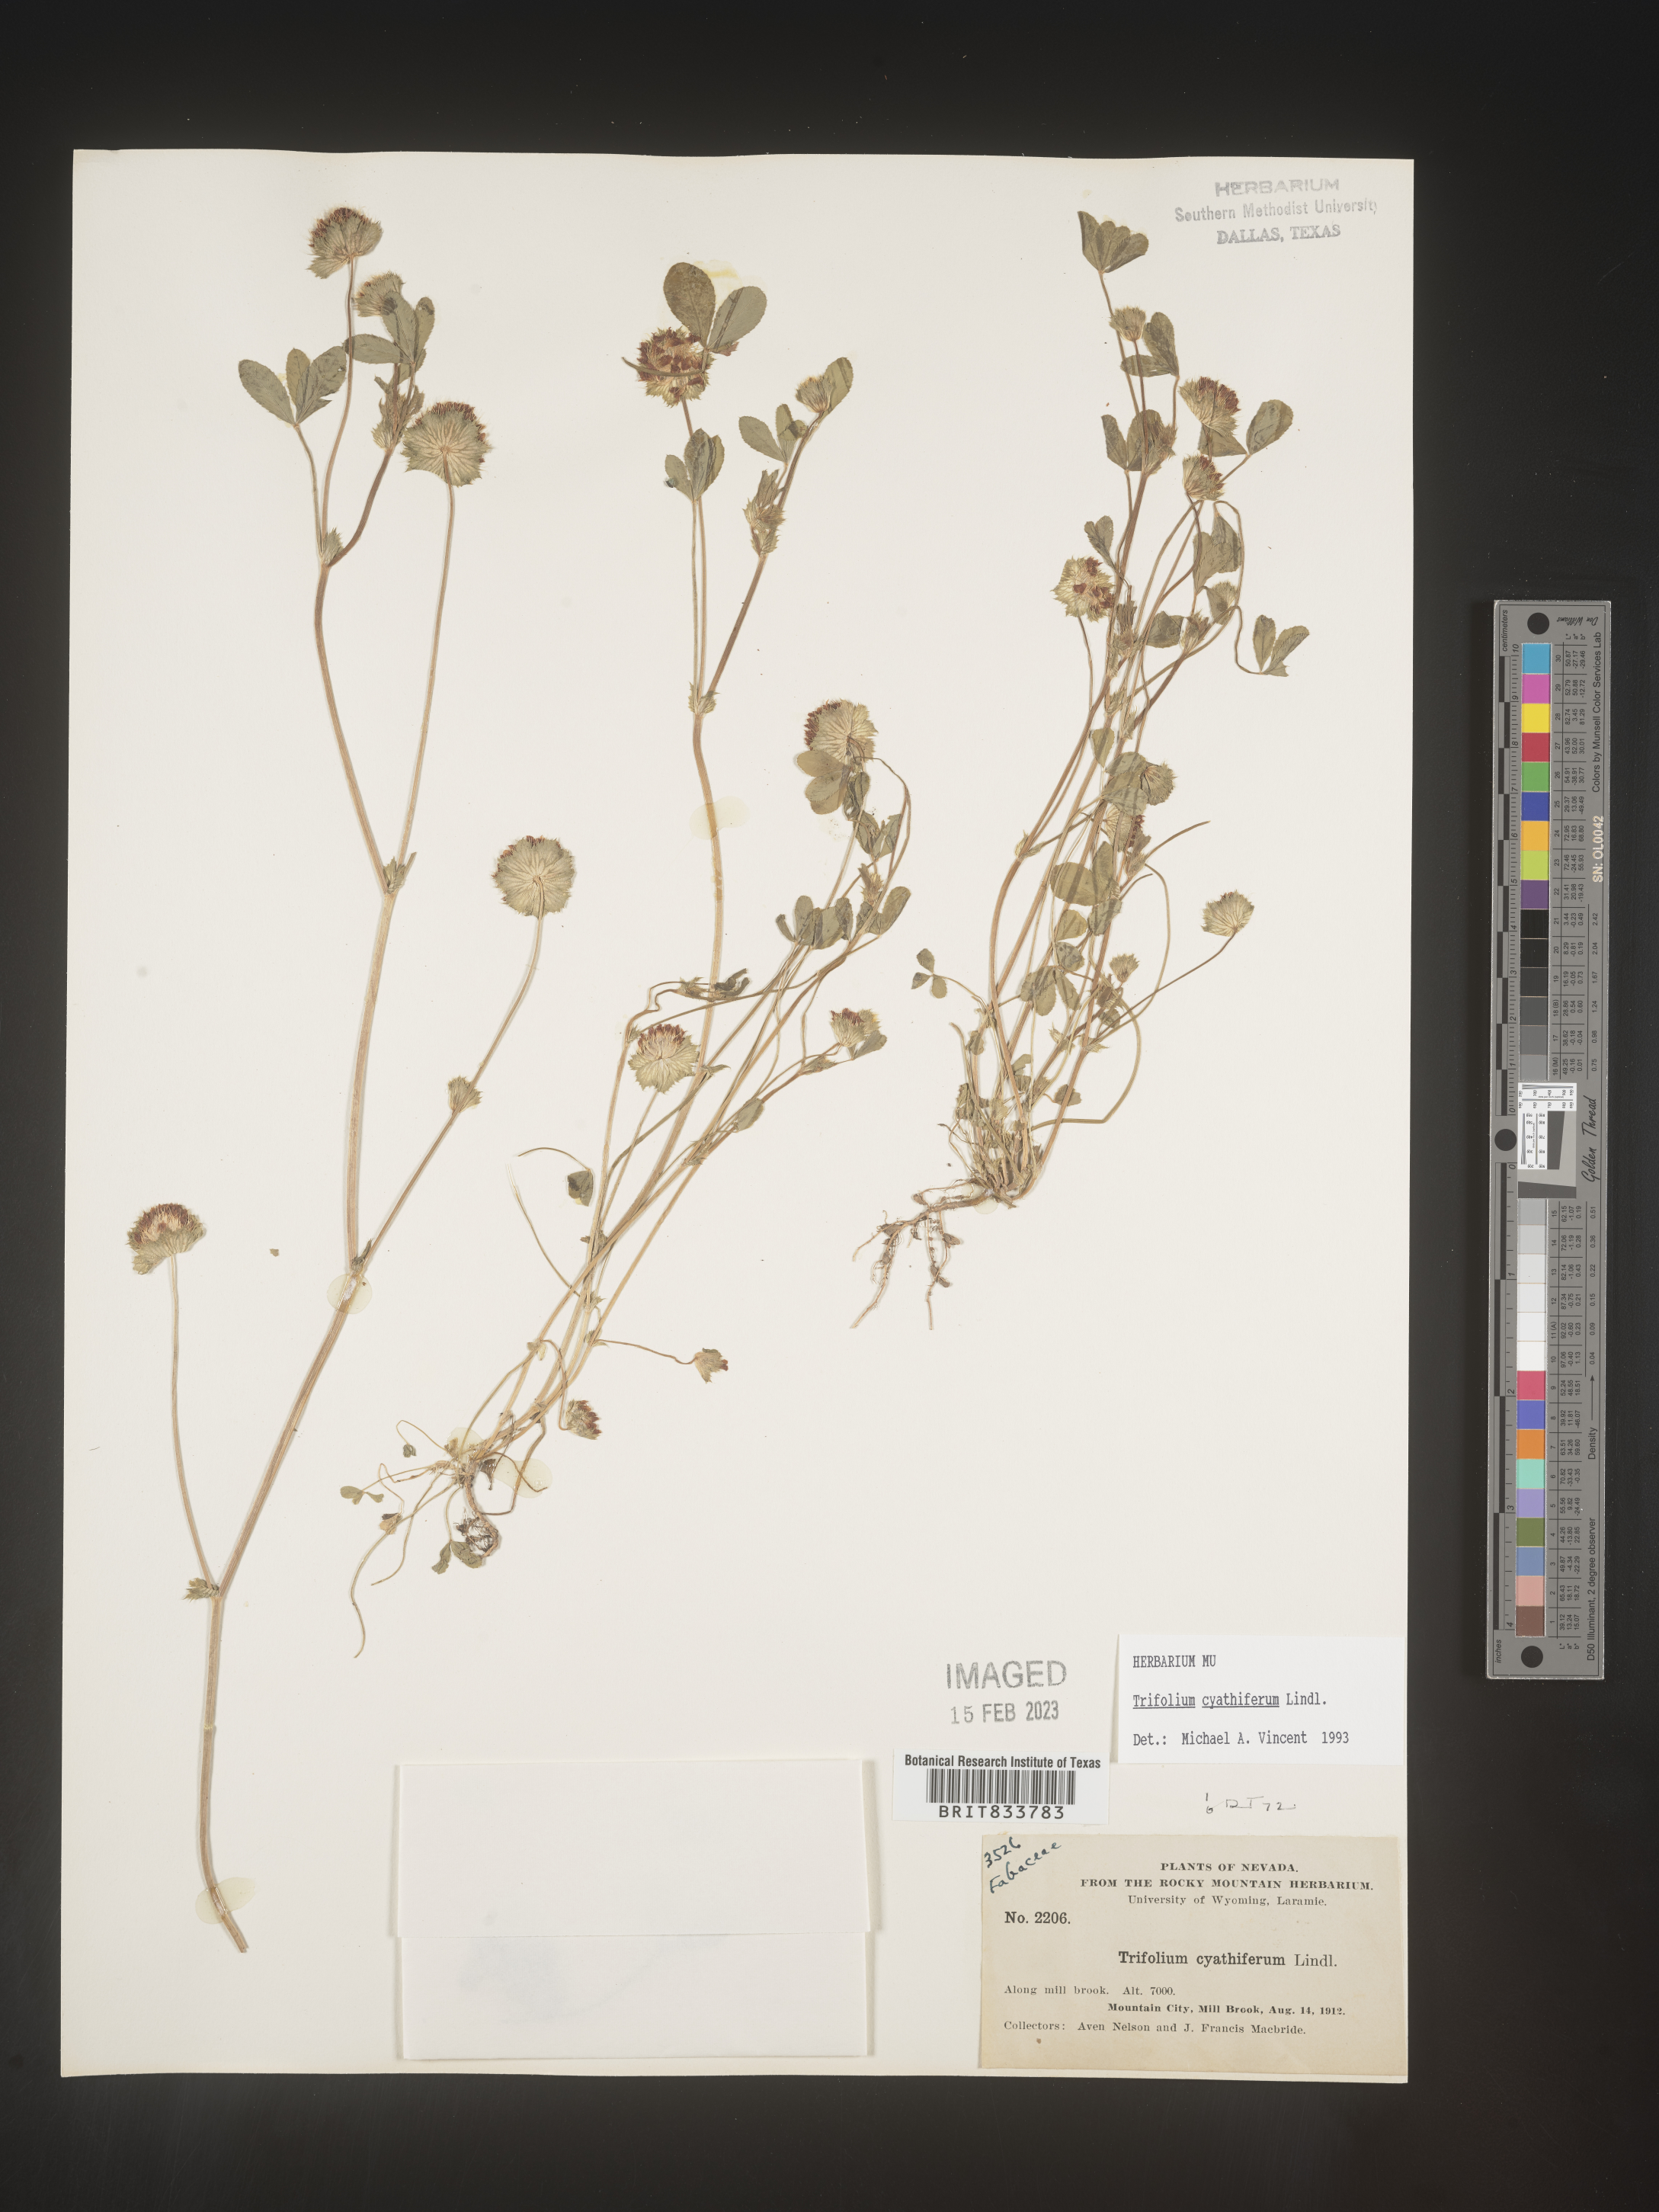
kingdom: Plantae
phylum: Tracheophyta
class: Magnoliopsida
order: Fabales
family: Fabaceae
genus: Trifolium
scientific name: Trifolium
